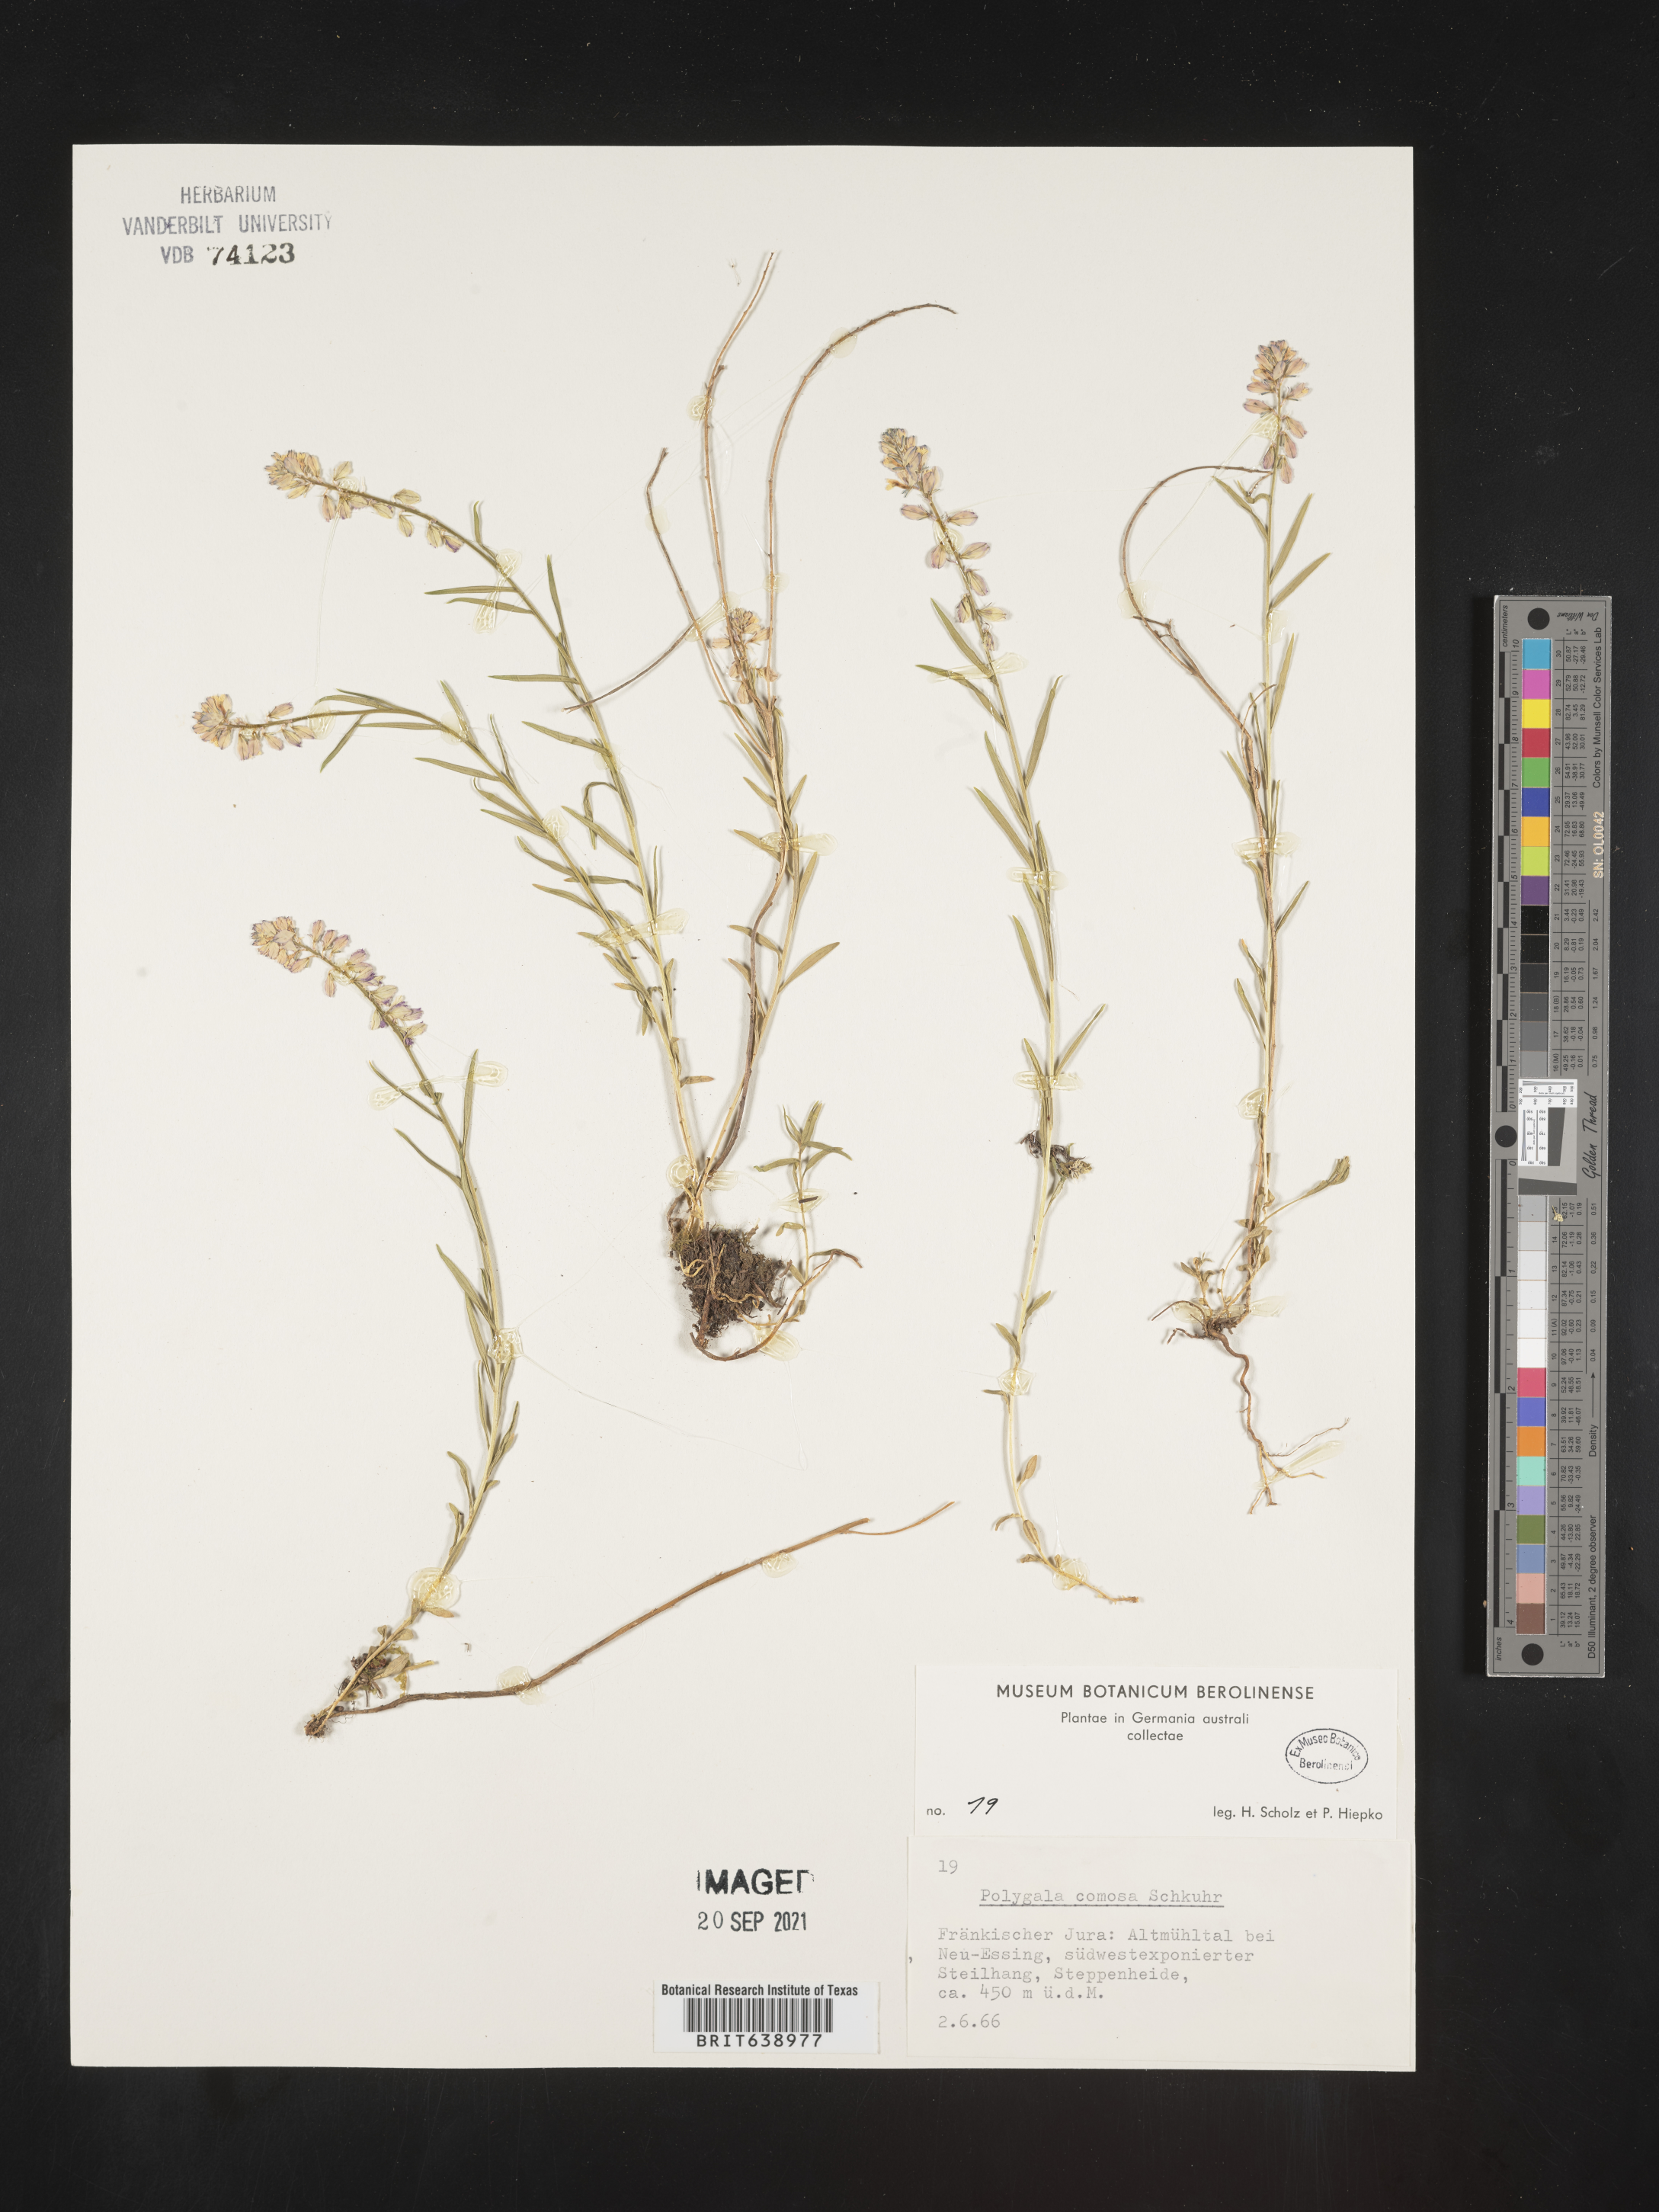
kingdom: Plantae
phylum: Tracheophyta
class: Magnoliopsida
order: Fabales
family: Polygalaceae
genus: Polygala
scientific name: Polygala
